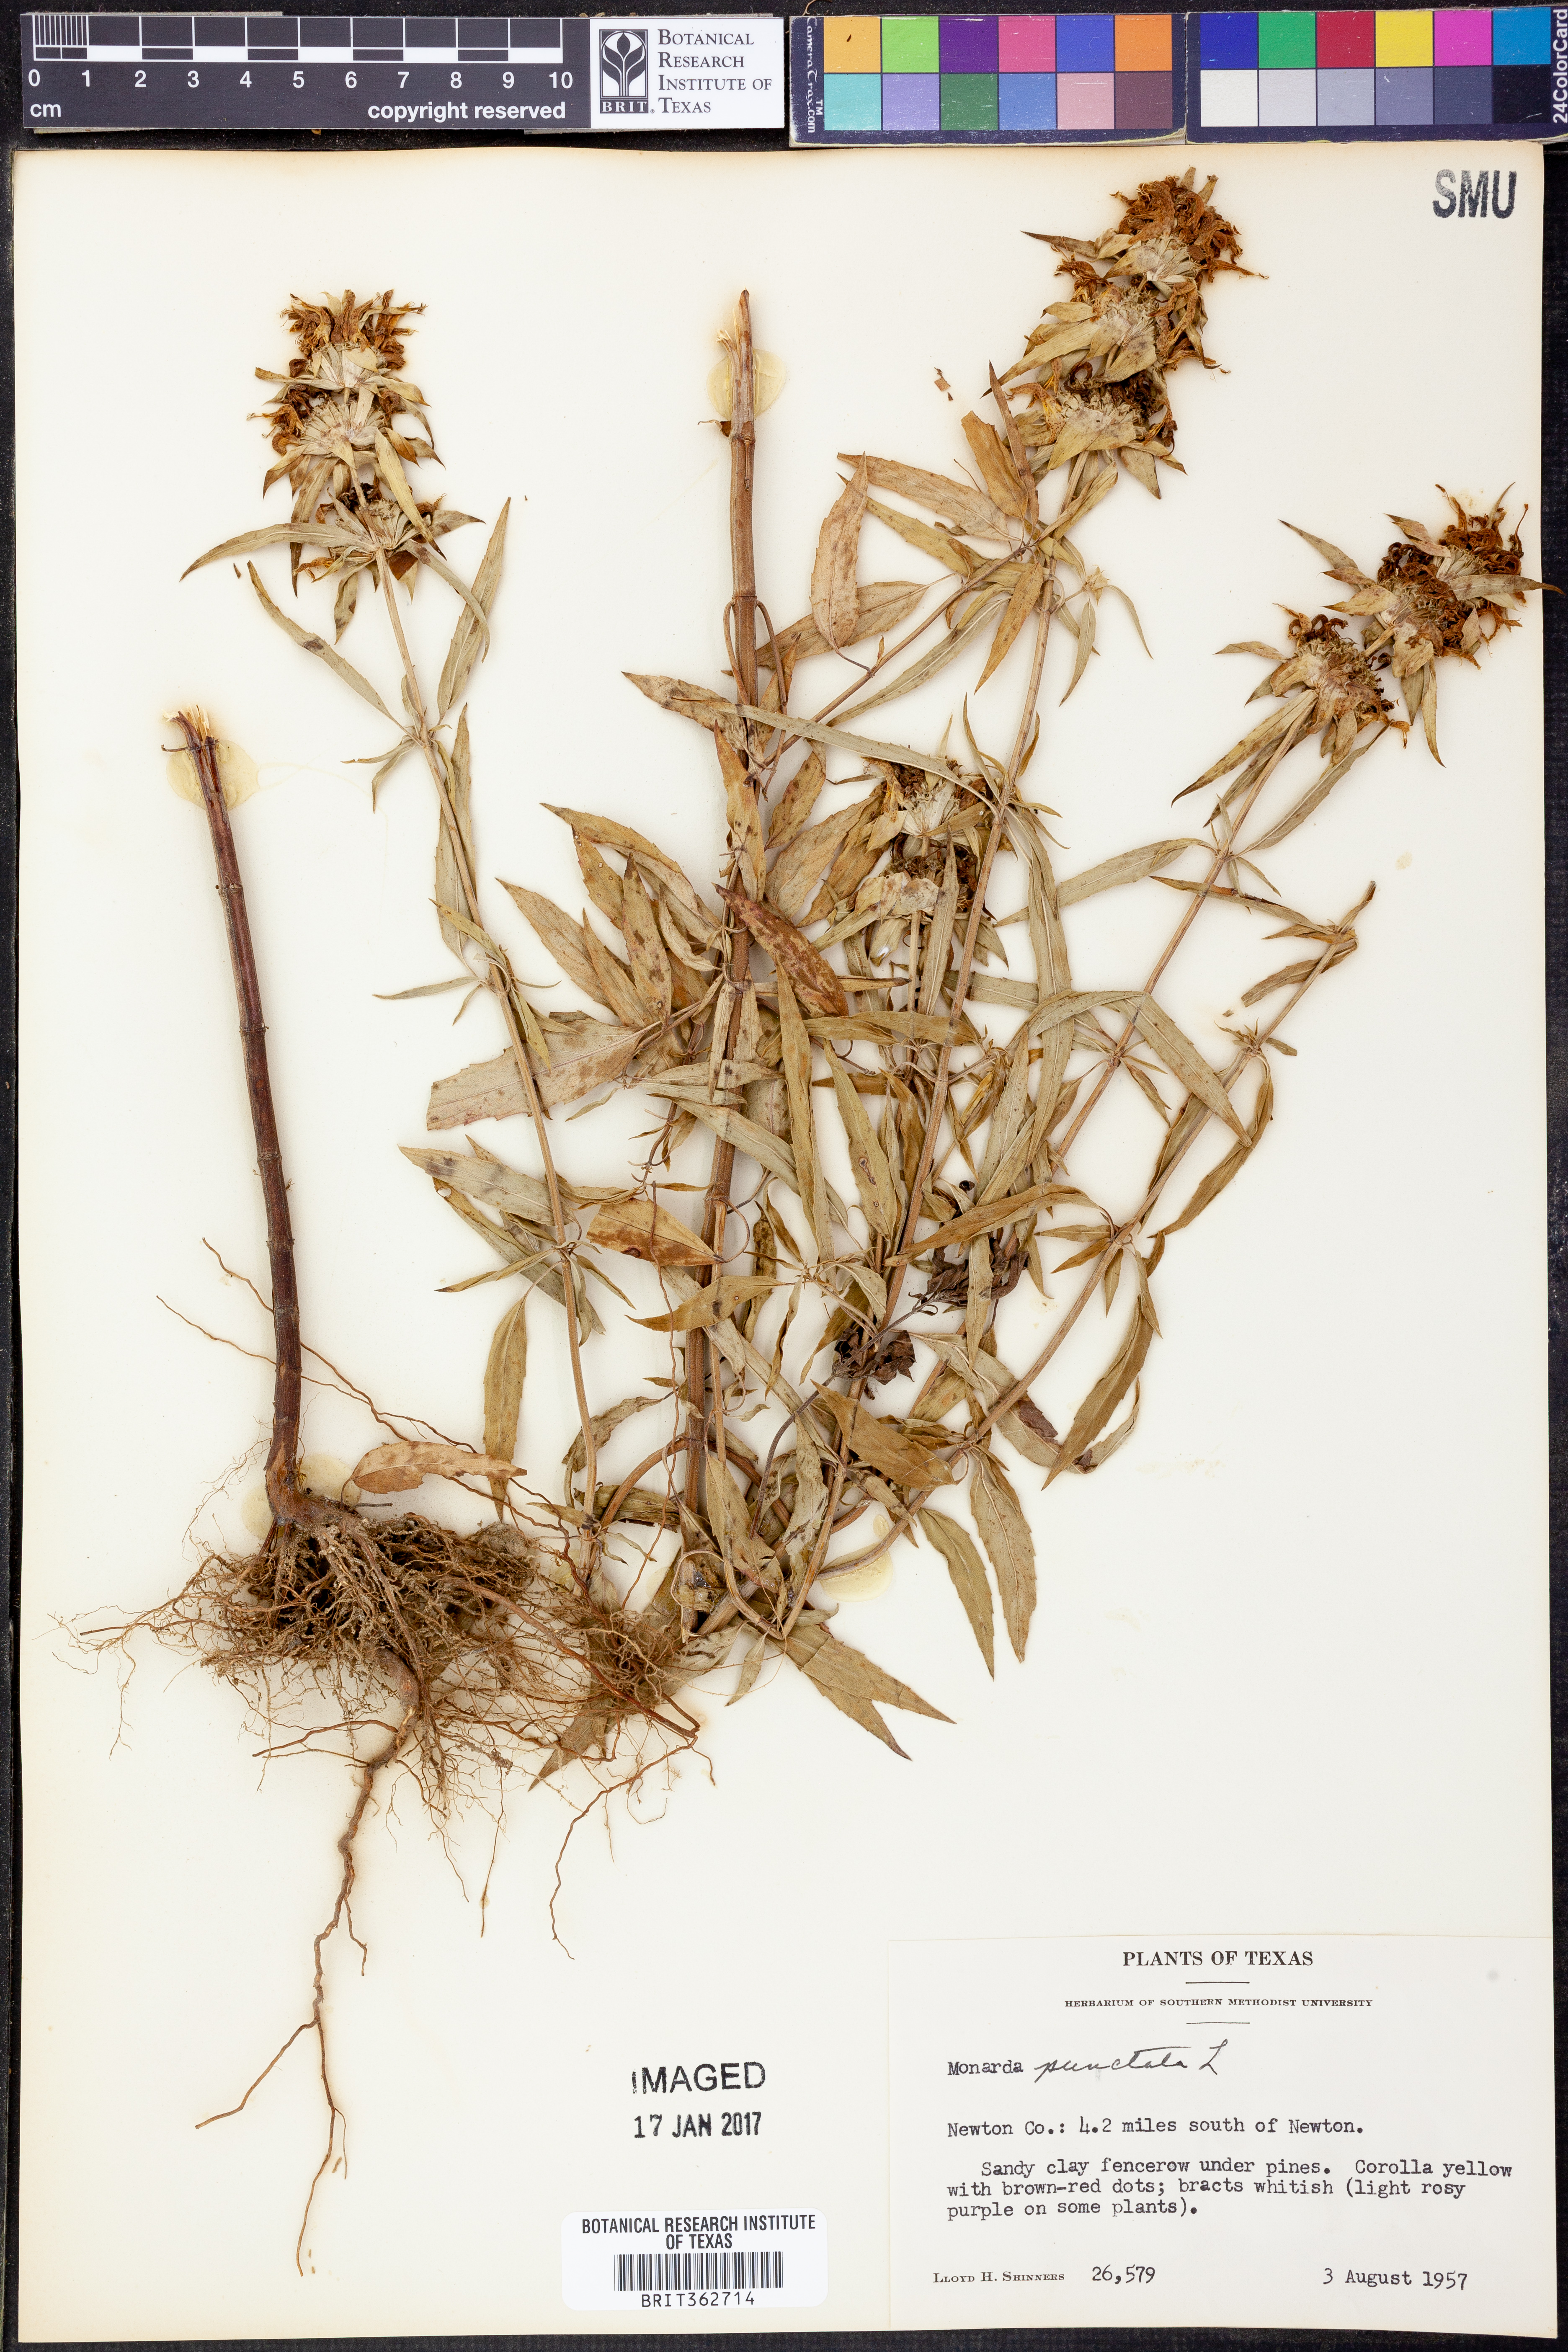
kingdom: Plantae
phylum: Tracheophyta
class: Magnoliopsida
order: Lamiales
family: Lamiaceae
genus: Monarda
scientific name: Monarda punctata
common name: Dotted monarda
